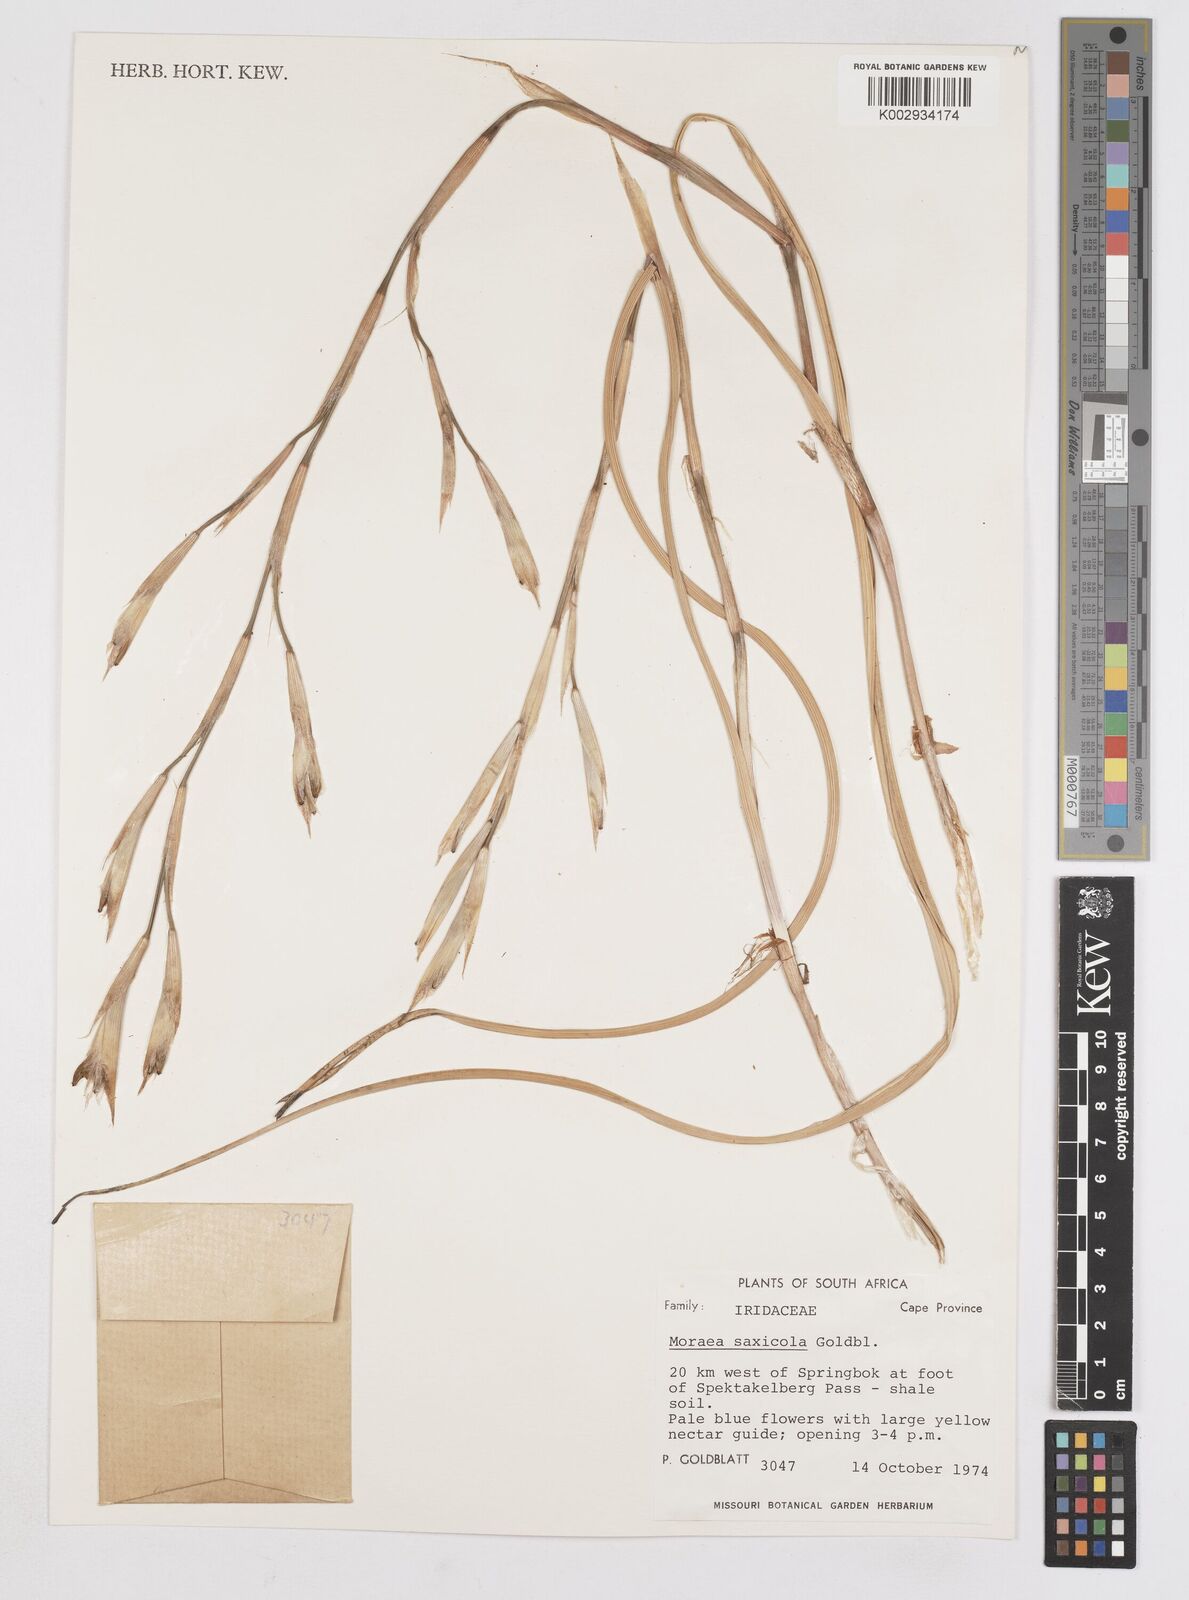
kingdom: Plantae
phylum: Tracheophyta
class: Liliopsida
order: Asparagales
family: Iridaceae
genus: Moraea
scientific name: Moraea saxicola
